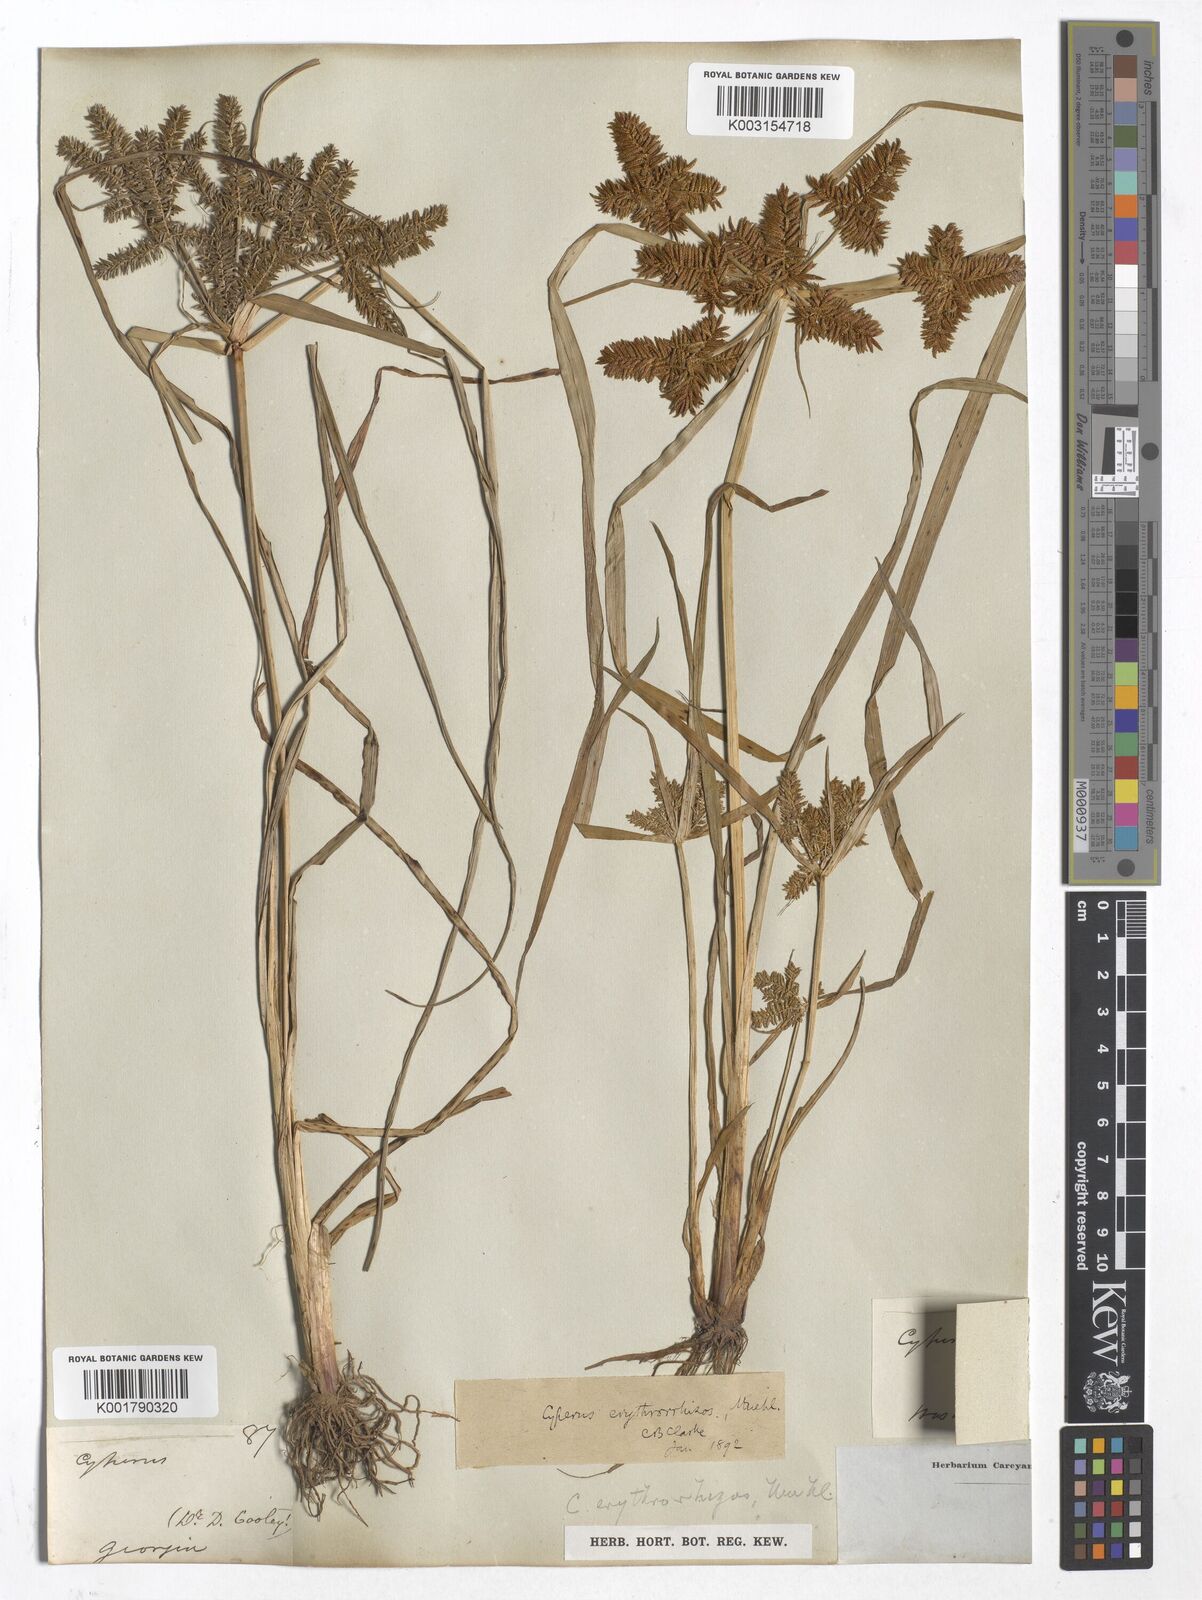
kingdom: Plantae
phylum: Tracheophyta
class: Liliopsida
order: Poales
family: Cyperaceae
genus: Cyperus
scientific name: Cyperus
